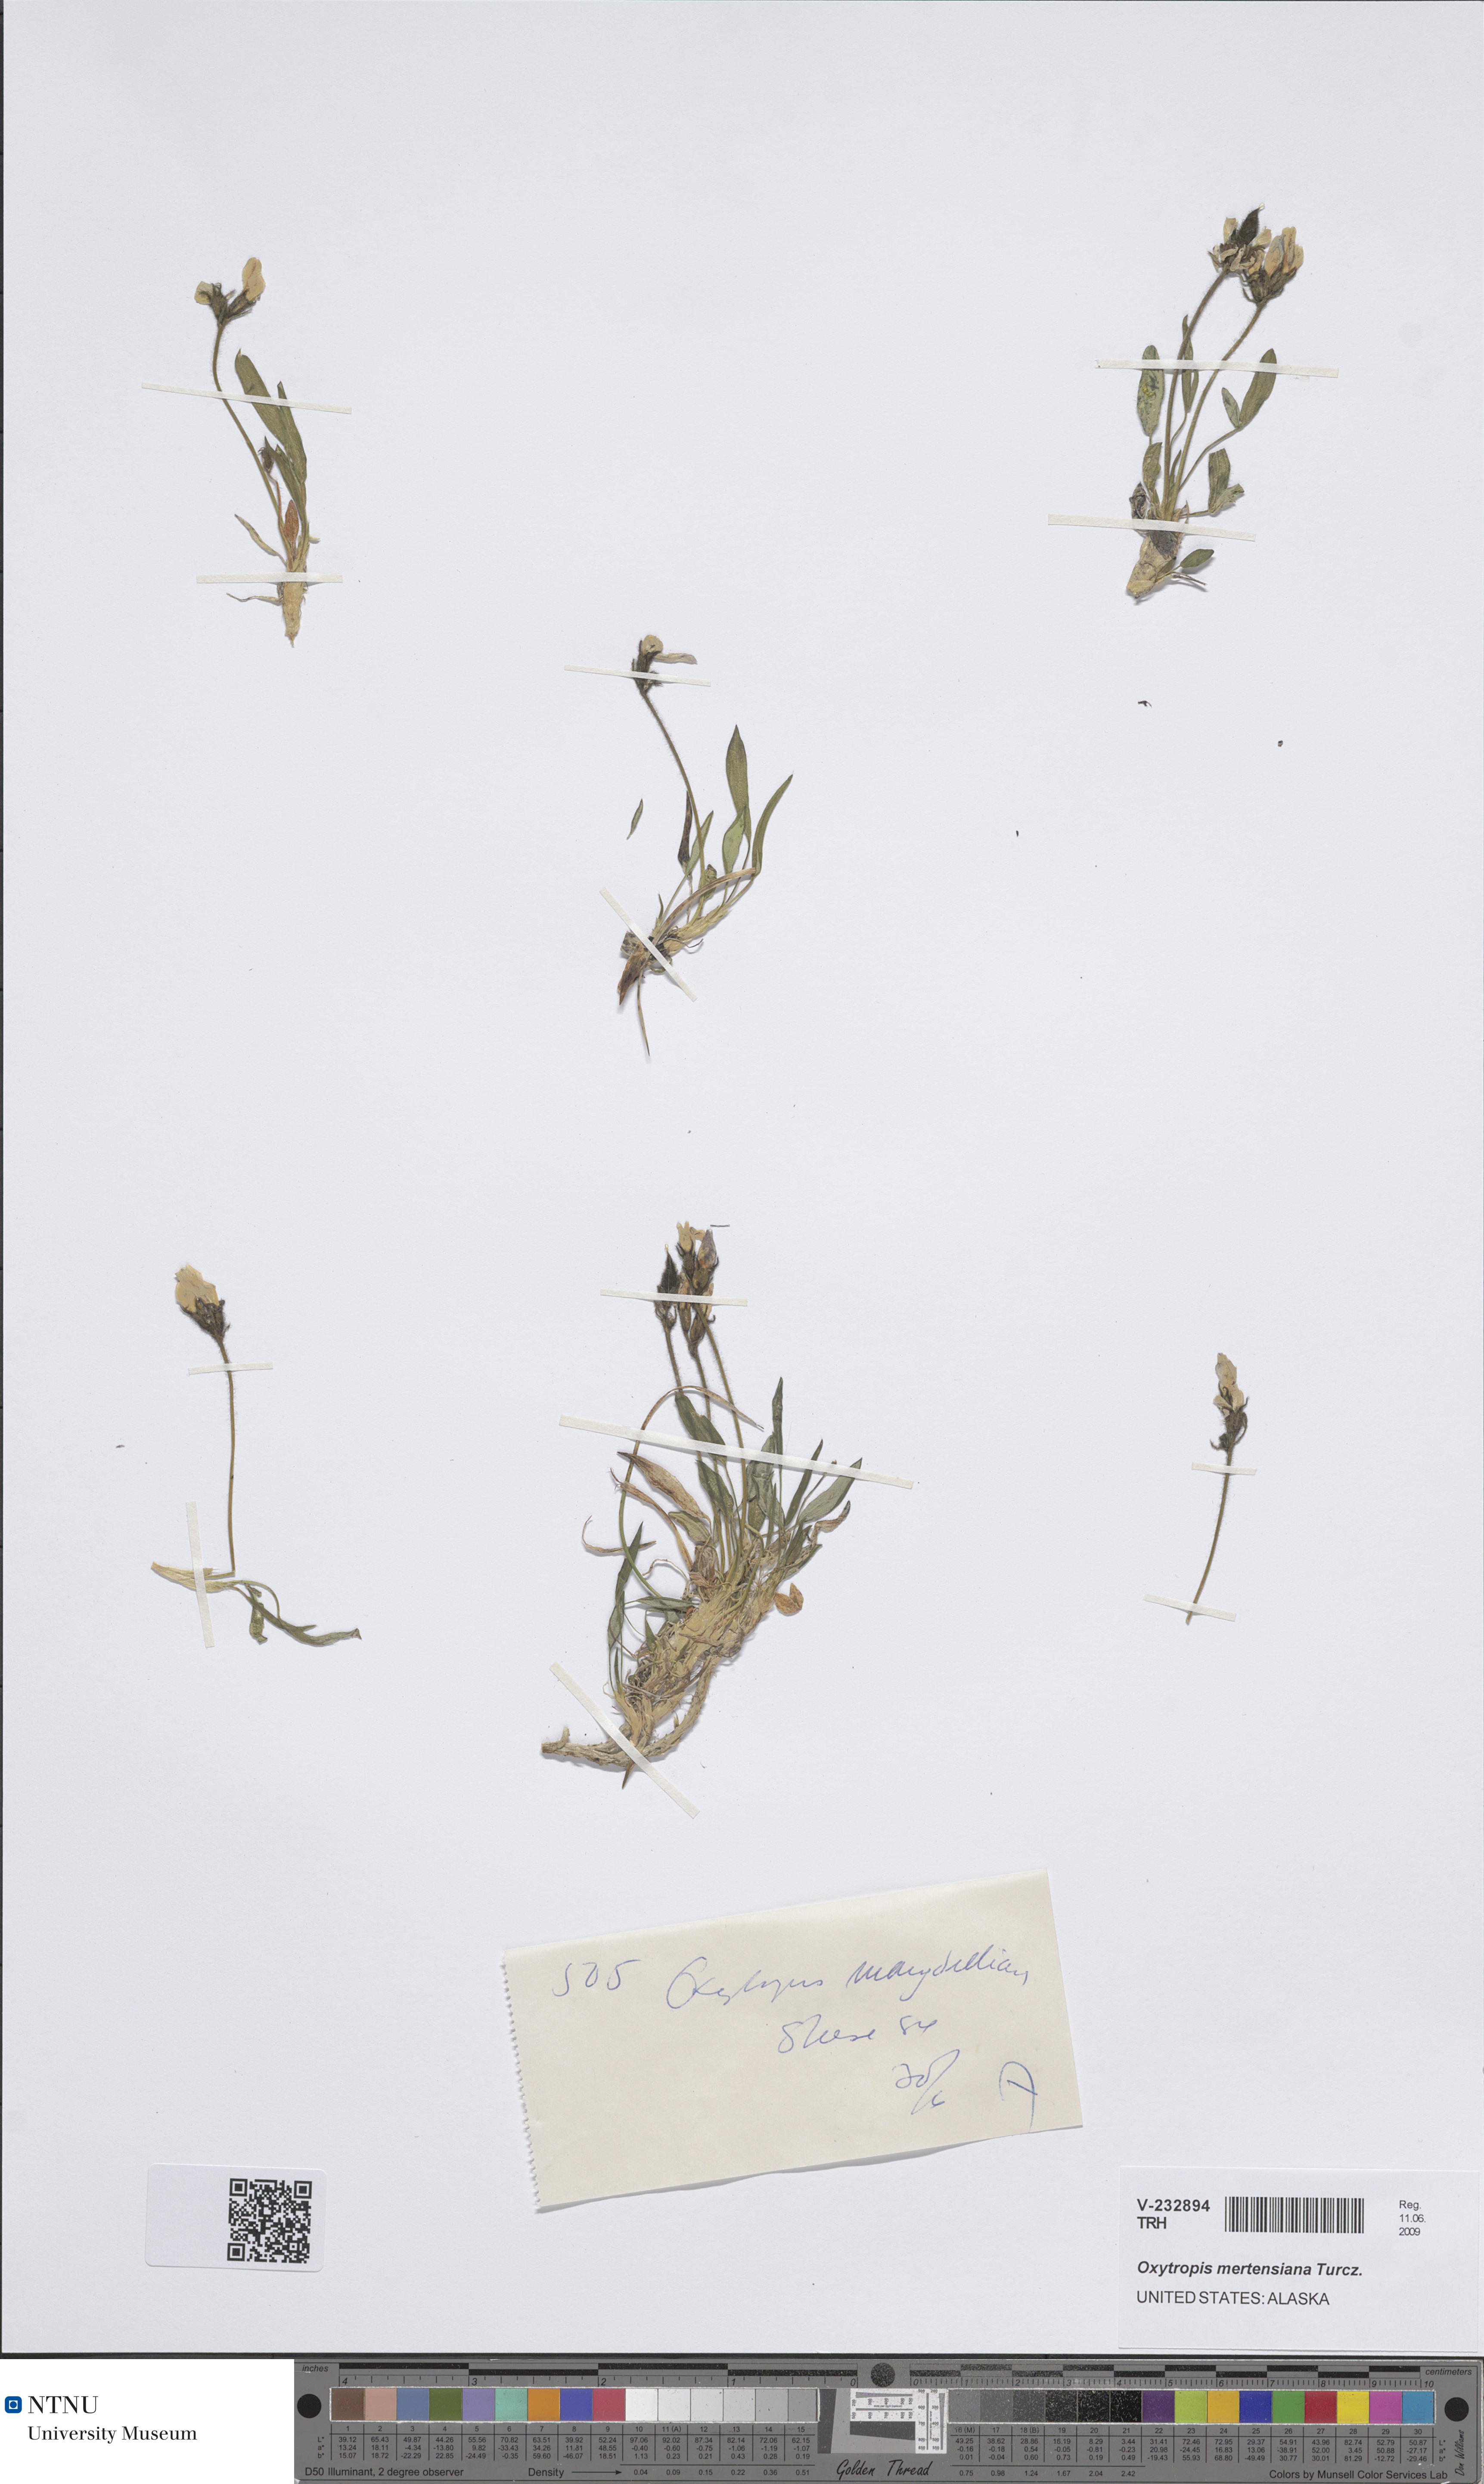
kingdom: Plantae
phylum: Tracheophyta
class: Magnoliopsida
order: Fabales
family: Fabaceae
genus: Oxytropis
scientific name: Oxytropis mertensiana
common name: Mertens' locoweed
